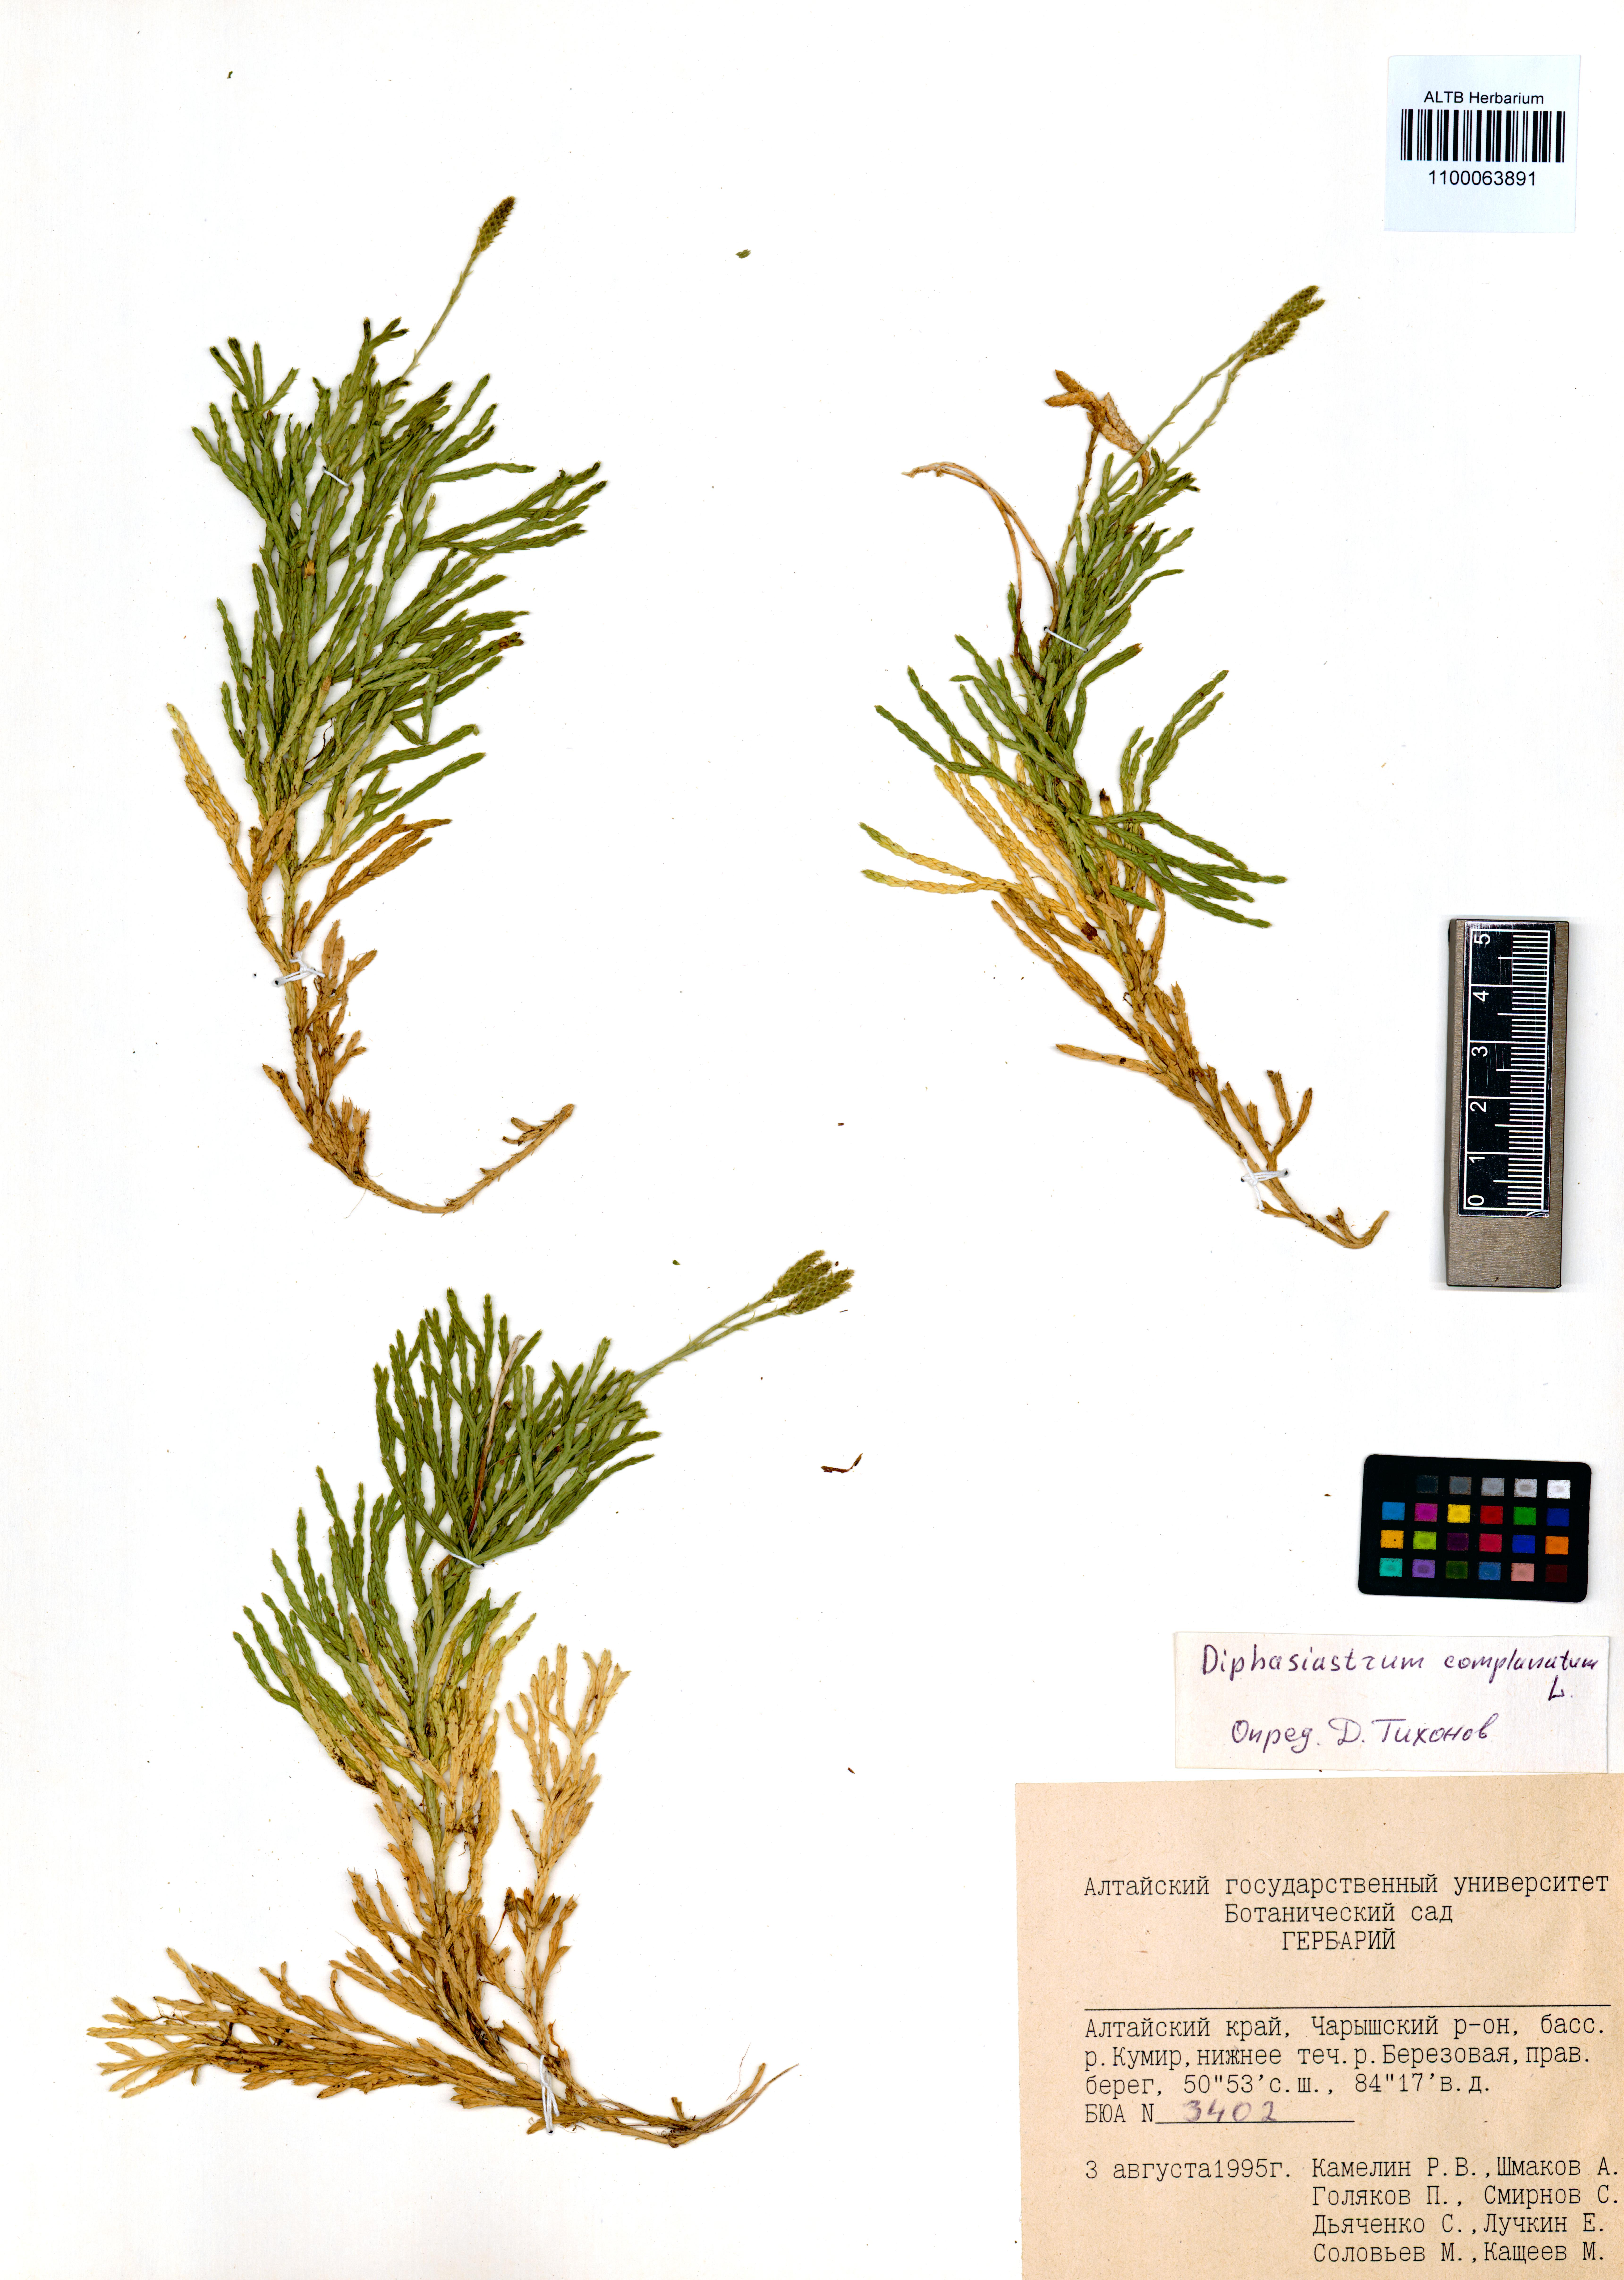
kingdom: Plantae
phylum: Tracheophyta
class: Lycopodiopsida
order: Lycopodiales
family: Lycopodiaceae
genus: Diphasiastrum
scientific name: Diphasiastrum complanatum
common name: Northern running-pine
